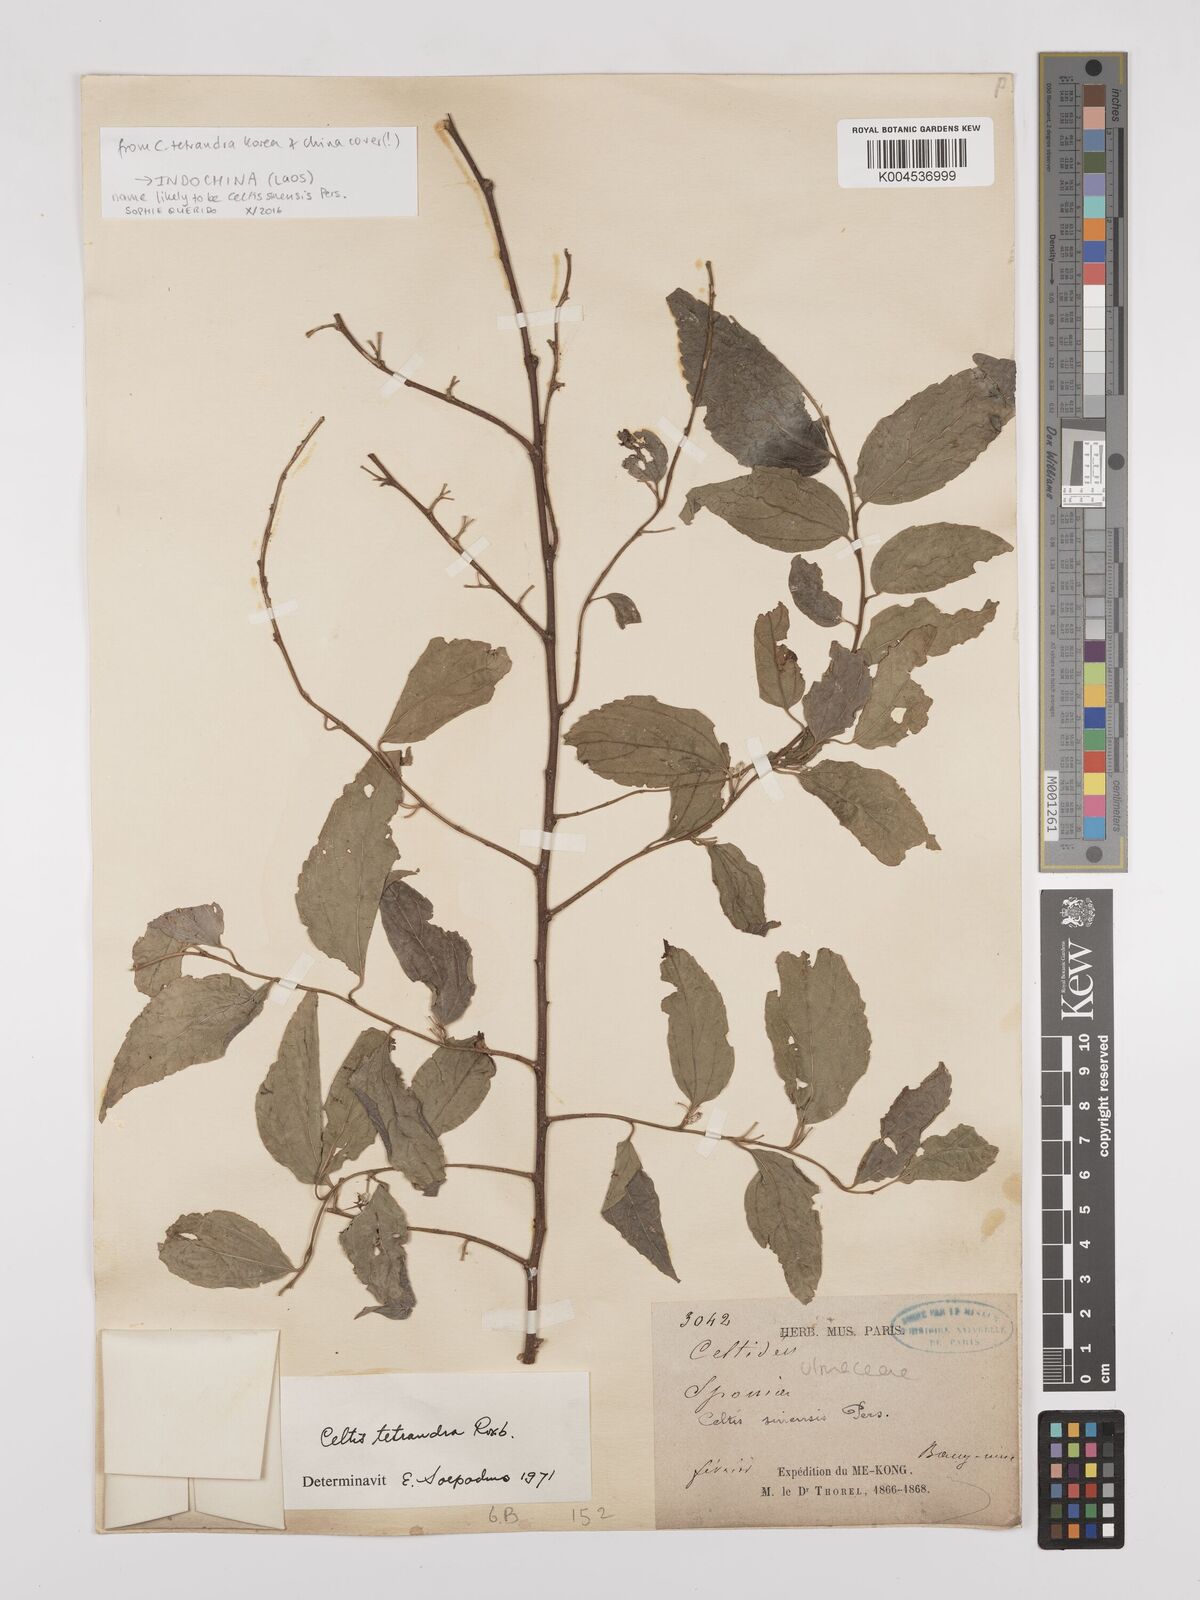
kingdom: Plantae
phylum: Tracheophyta
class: Magnoliopsida
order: Rosales
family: Cannabaceae
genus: Celtis
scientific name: Celtis tetrandra
